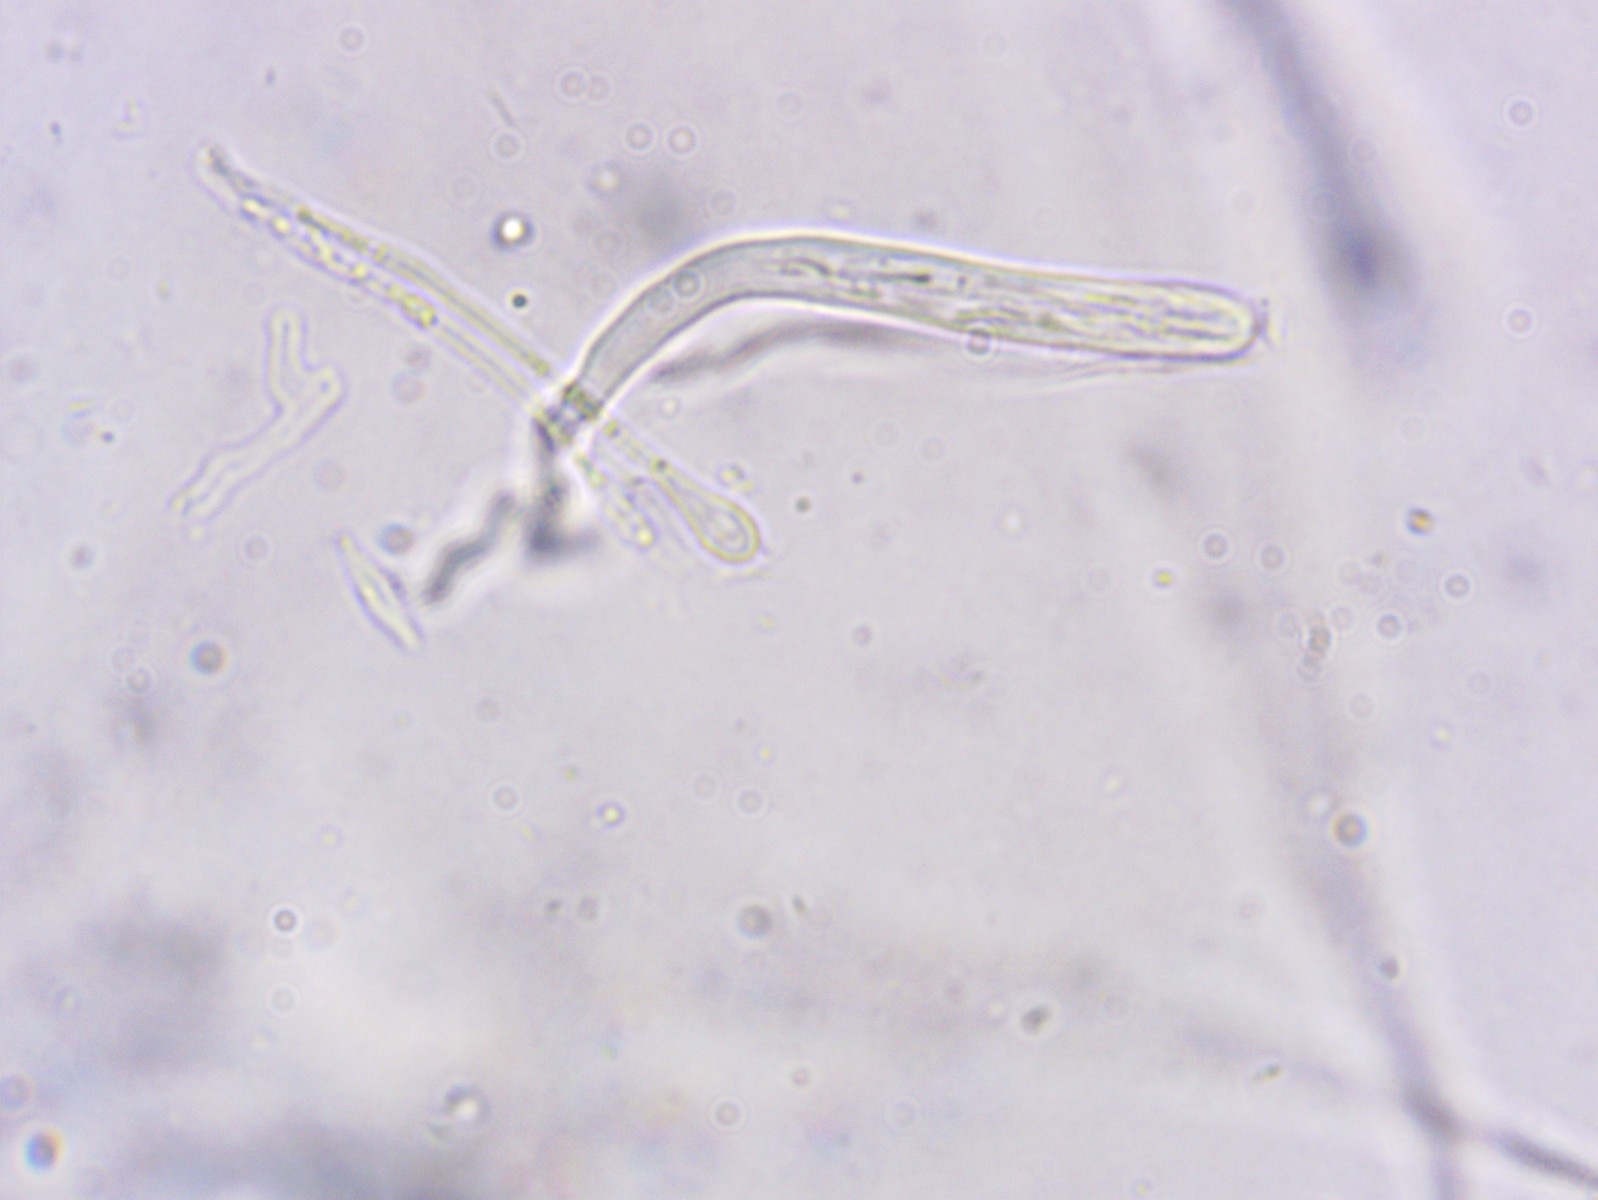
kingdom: Fungi
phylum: Ascomycota
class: Orbiliomycetes
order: Orbiliales
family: Orbiliaceae
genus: Orbilia
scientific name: Orbilia obtusispora
